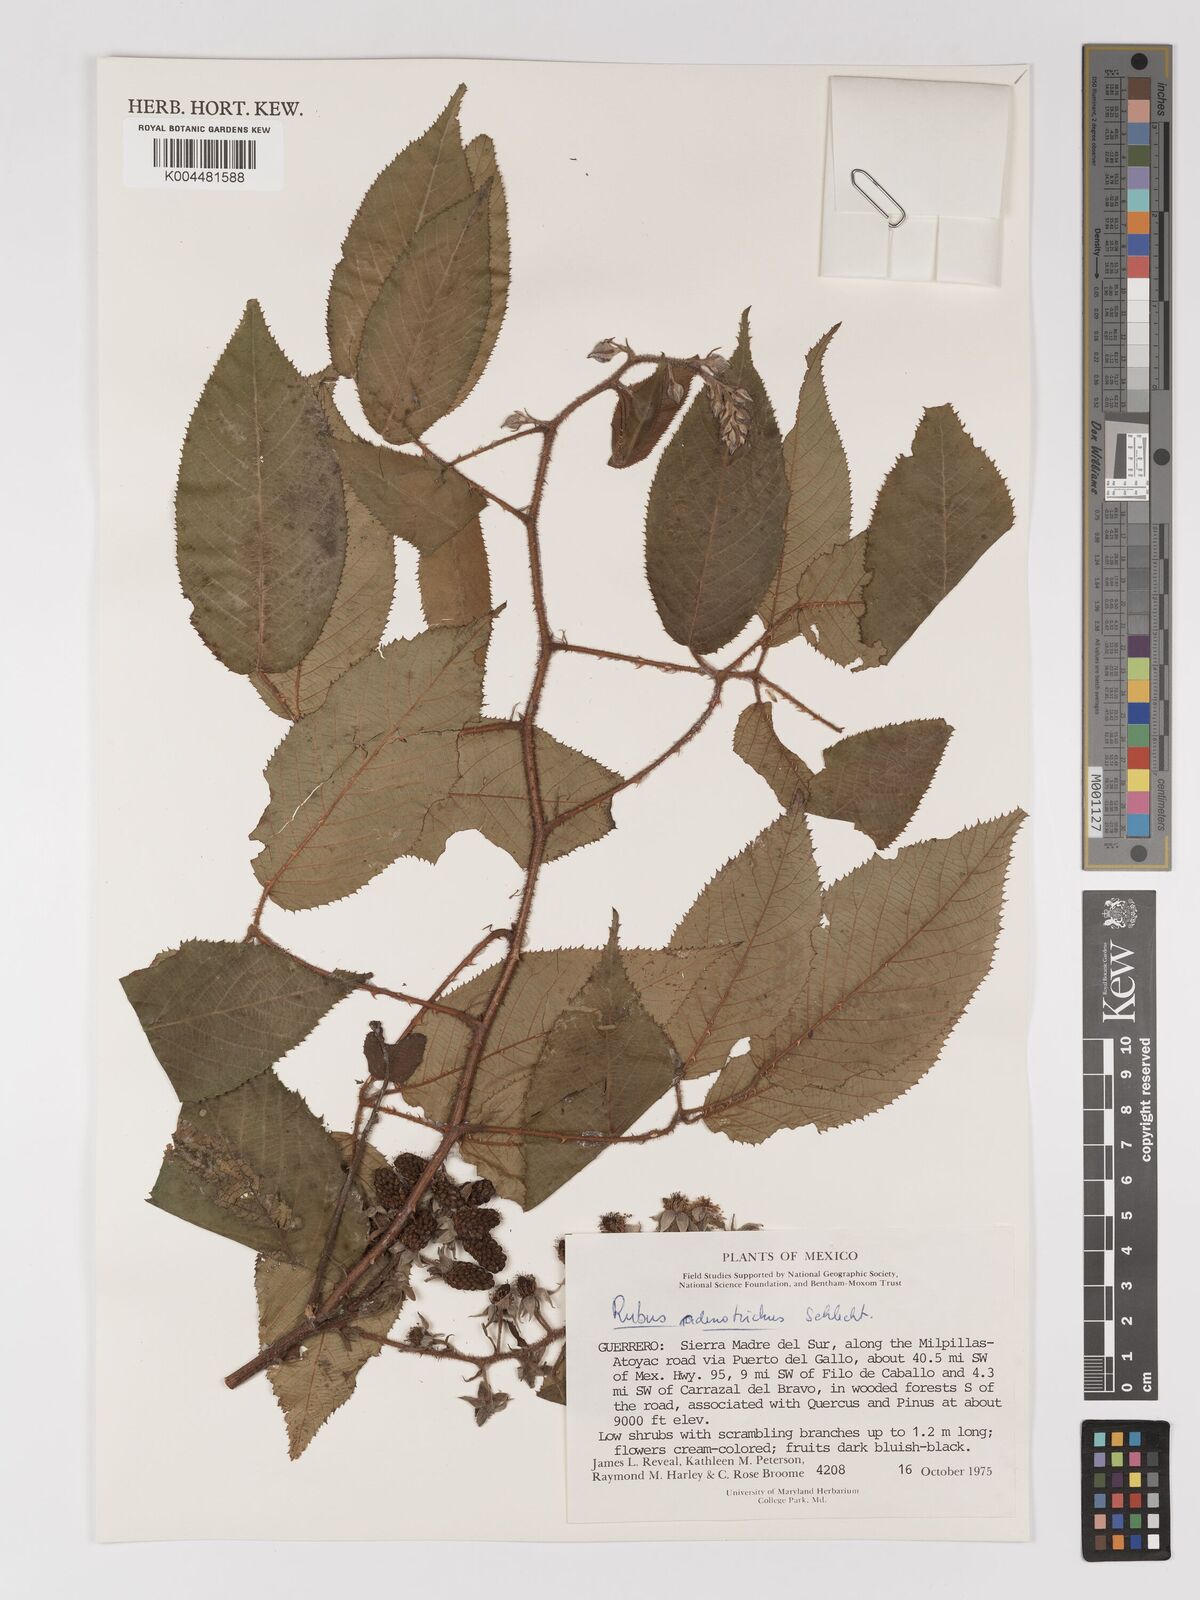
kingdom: Plantae
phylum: Tracheophyta
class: Magnoliopsida
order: Rosales
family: Rosaceae
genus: Rubus
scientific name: Rubus adenotrichos
